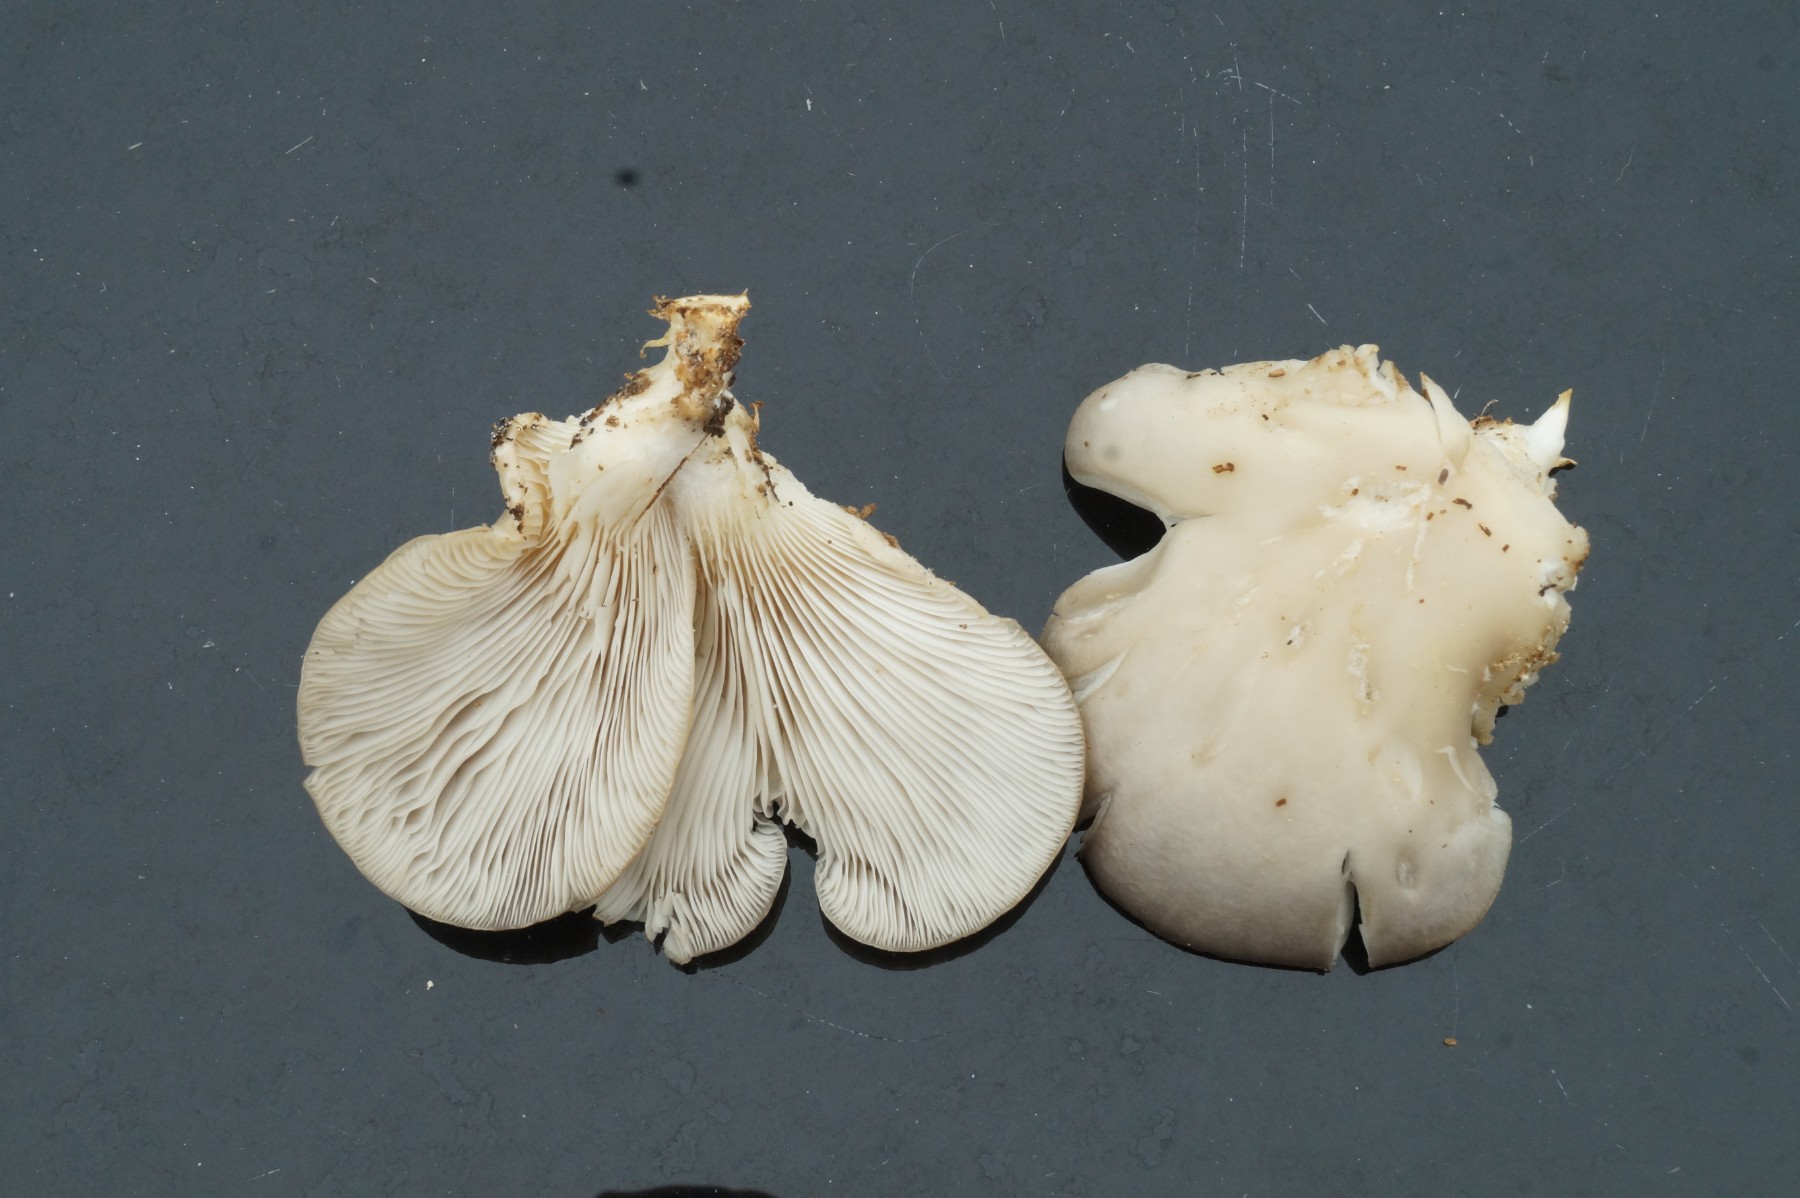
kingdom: Fungi
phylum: Basidiomycota
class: Agaricomycetes
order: Agaricales
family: Pleurotaceae
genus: Pleurotus
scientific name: Pleurotus
